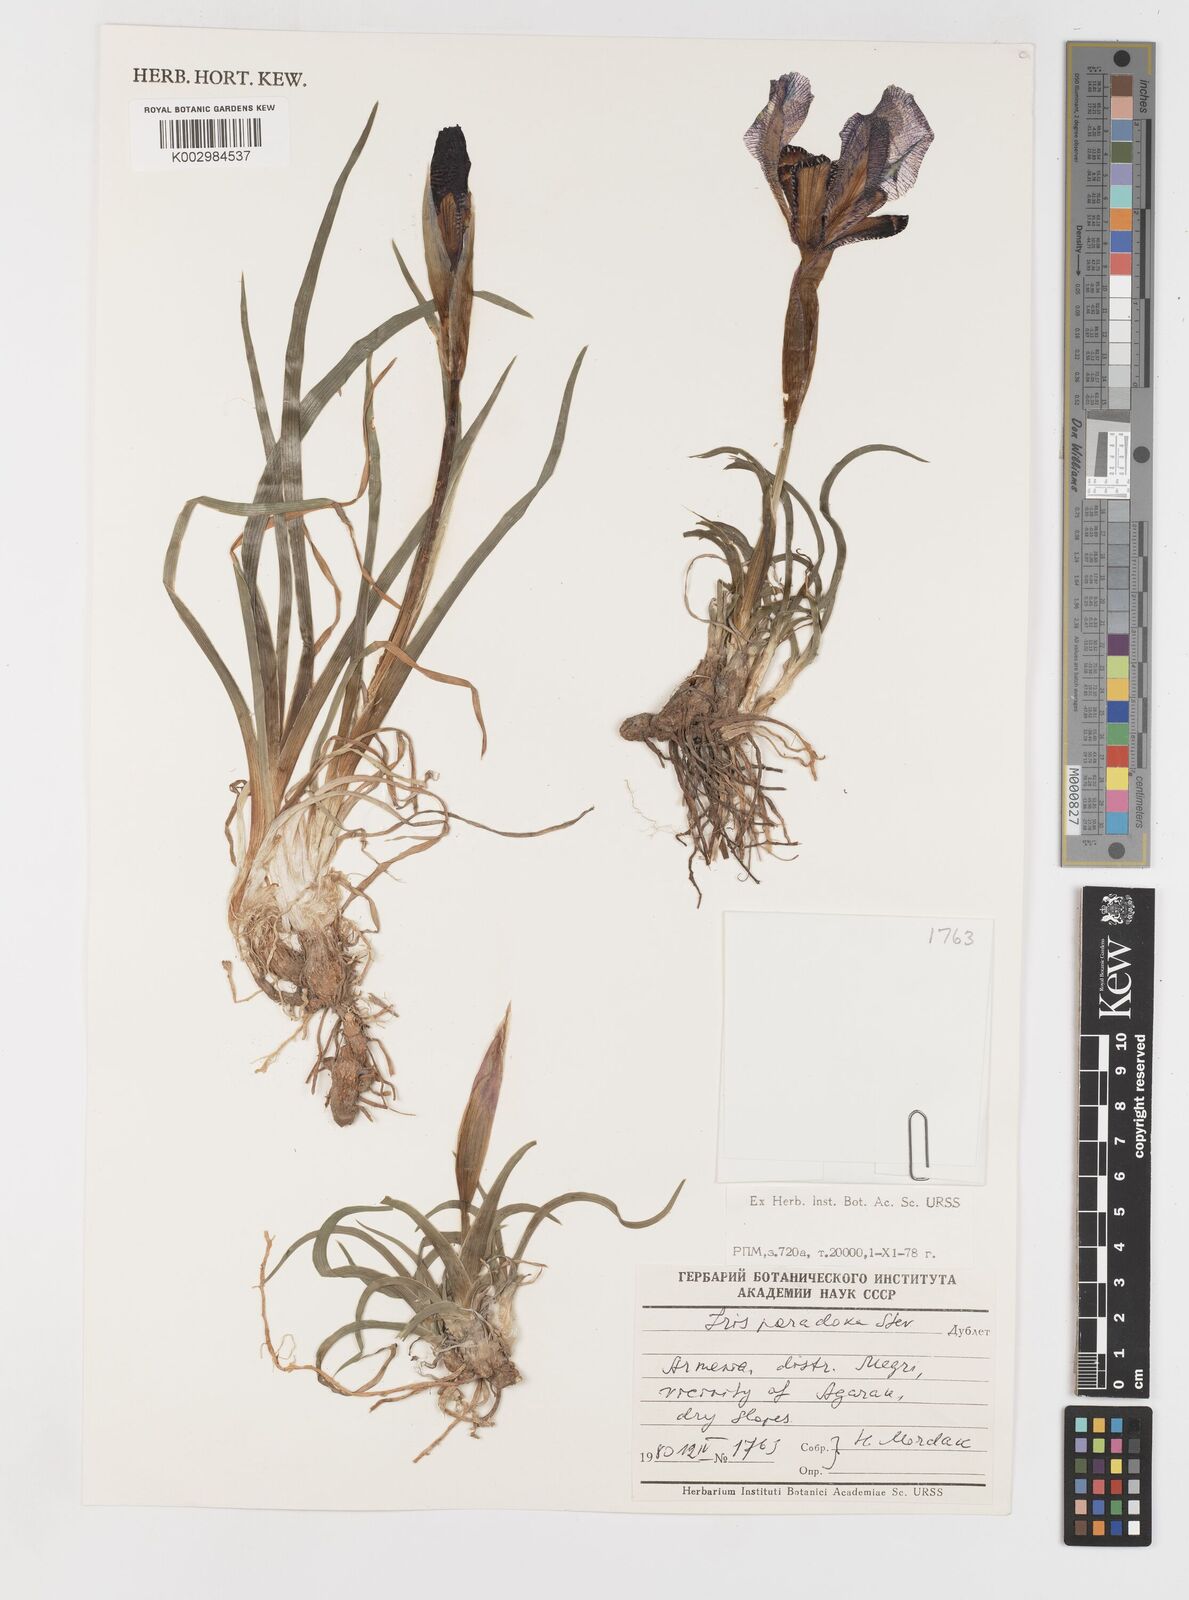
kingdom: Plantae
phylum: Tracheophyta
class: Liliopsida
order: Asparagales
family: Iridaceae
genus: Iris
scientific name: Iris paradoxa
